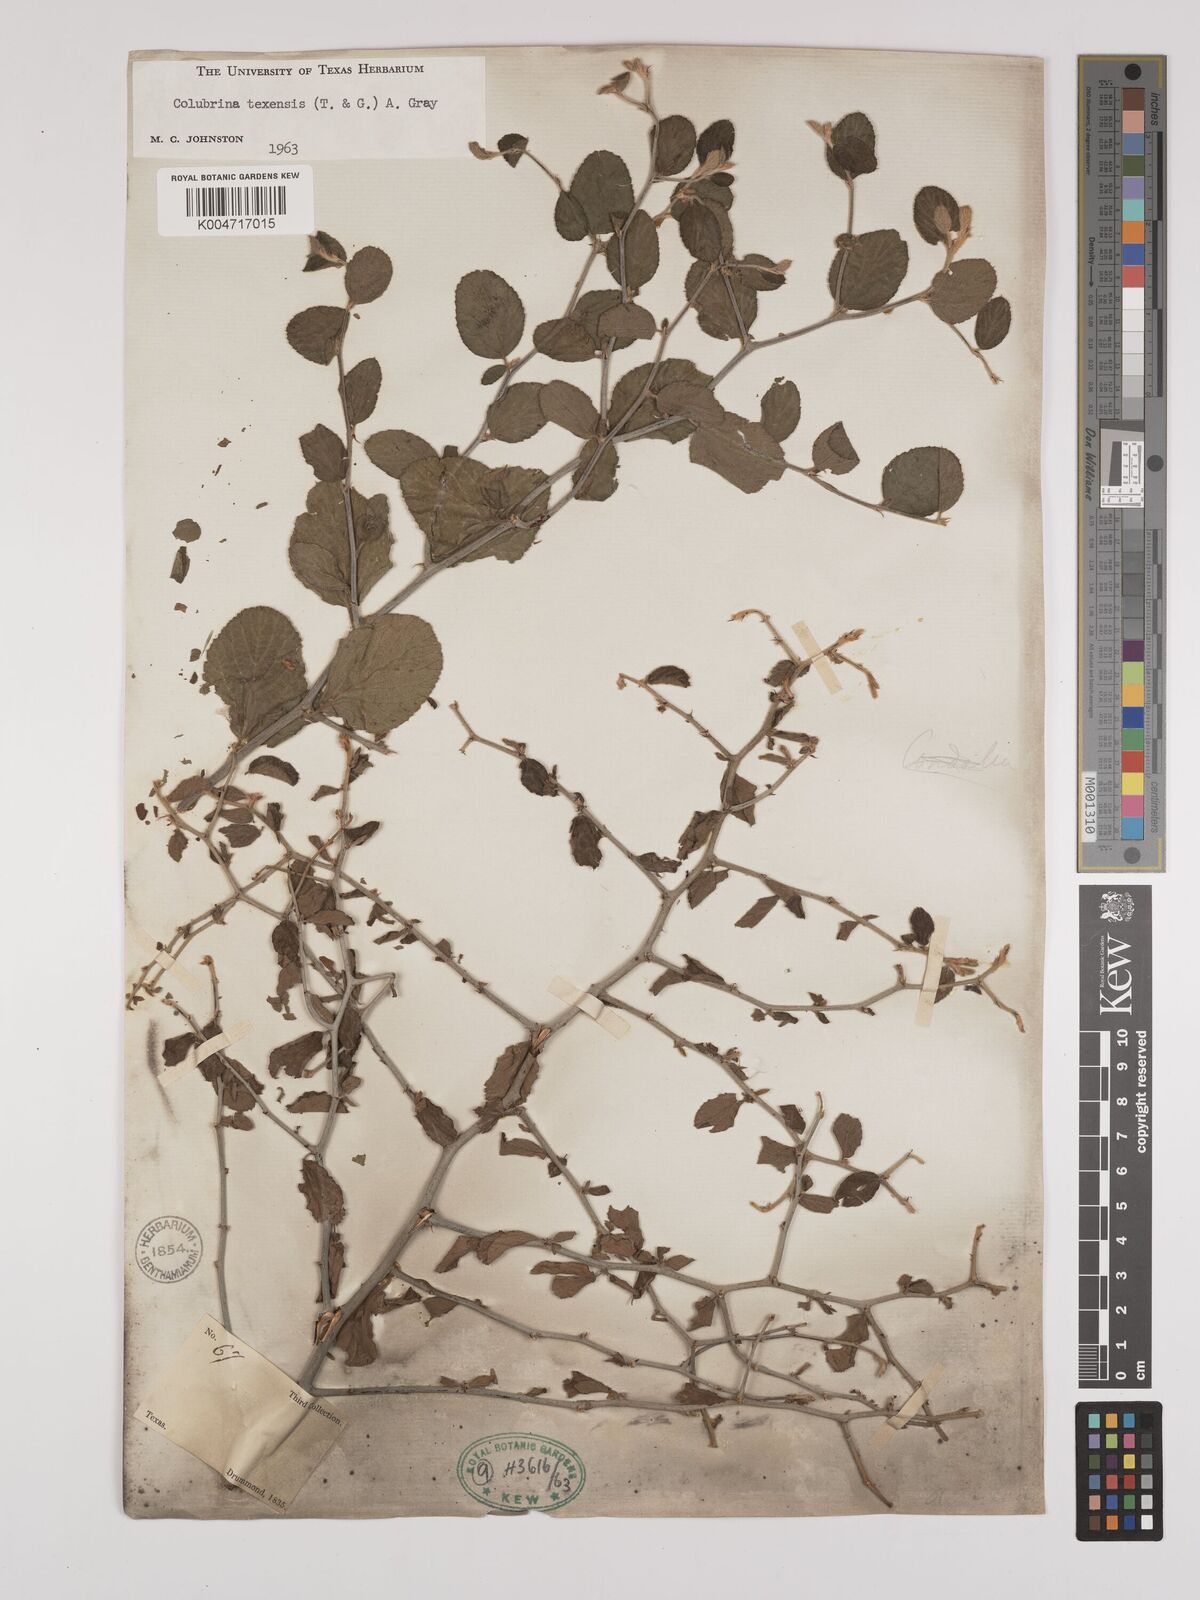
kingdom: Plantae
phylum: Tracheophyta
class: Magnoliopsida
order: Rosales
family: Rhamnaceae
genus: Colubrina
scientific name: Colubrina texensis
